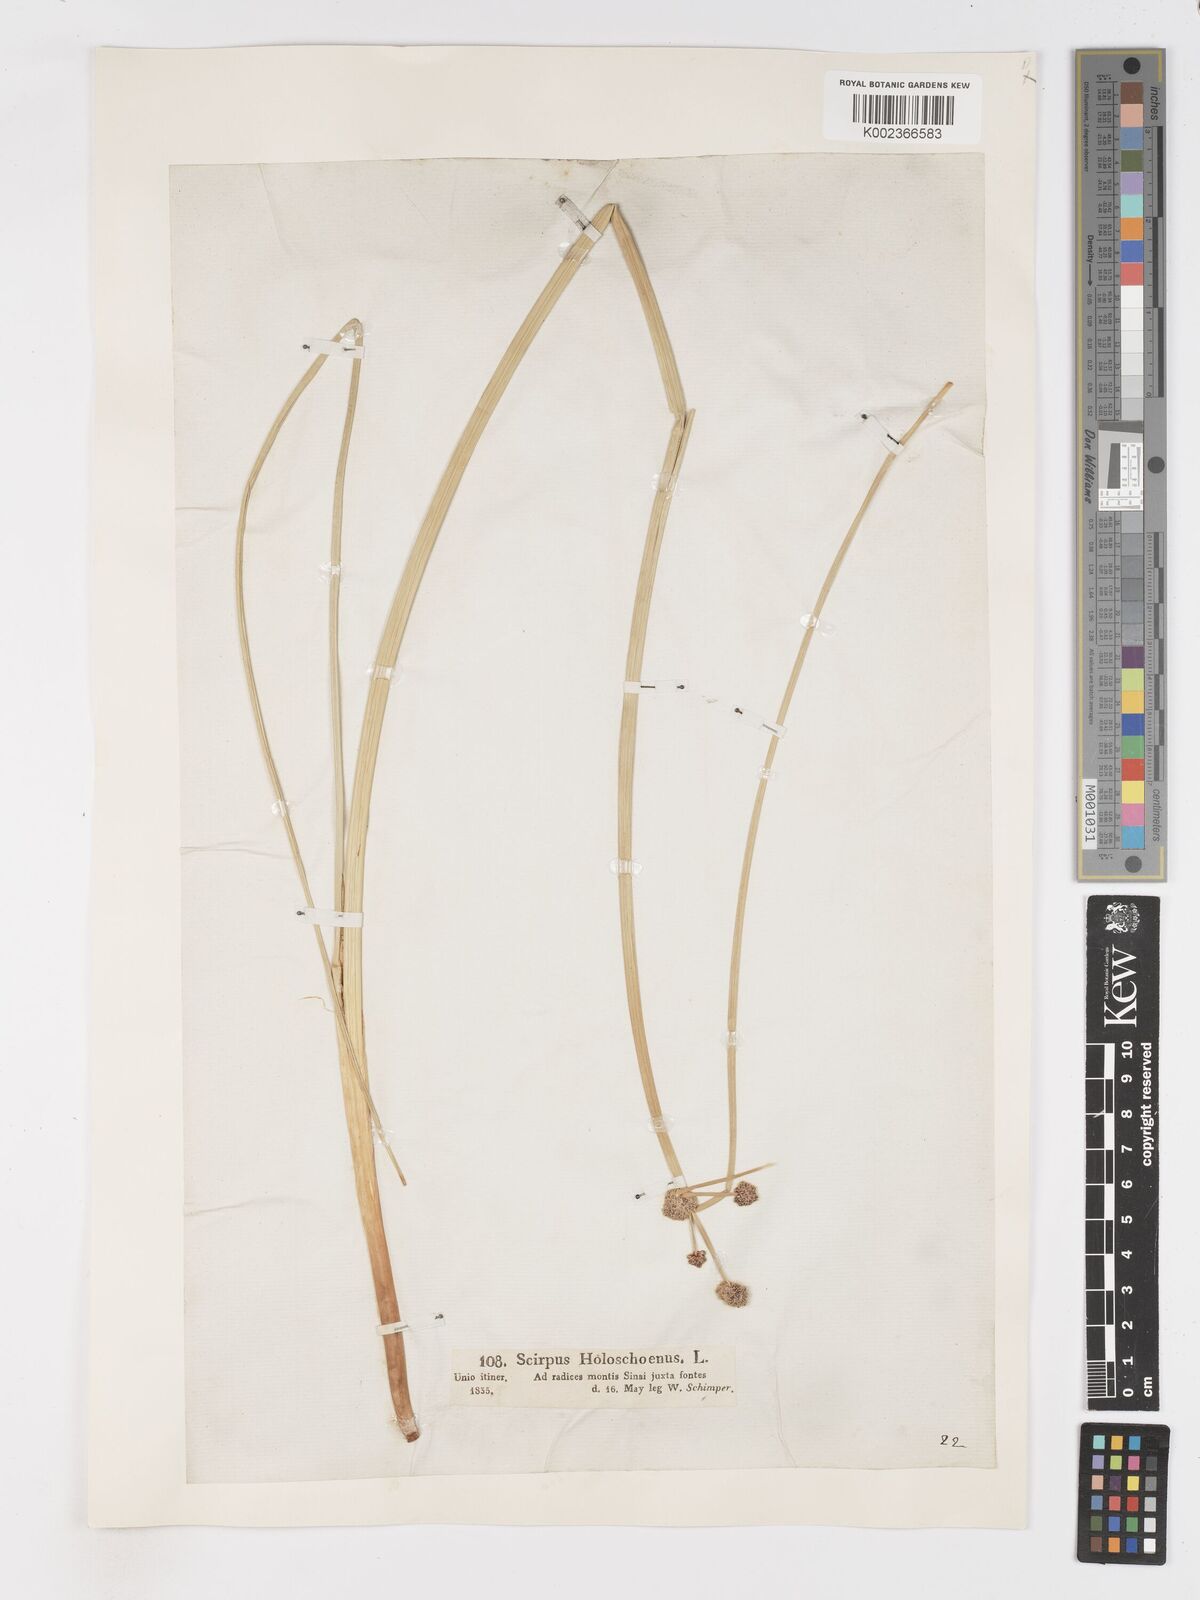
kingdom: Plantae
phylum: Tracheophyta
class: Liliopsida
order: Poales
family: Cyperaceae
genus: Scirpoides
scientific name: Scirpoides holoschoenus
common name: Round-headed club-rush
